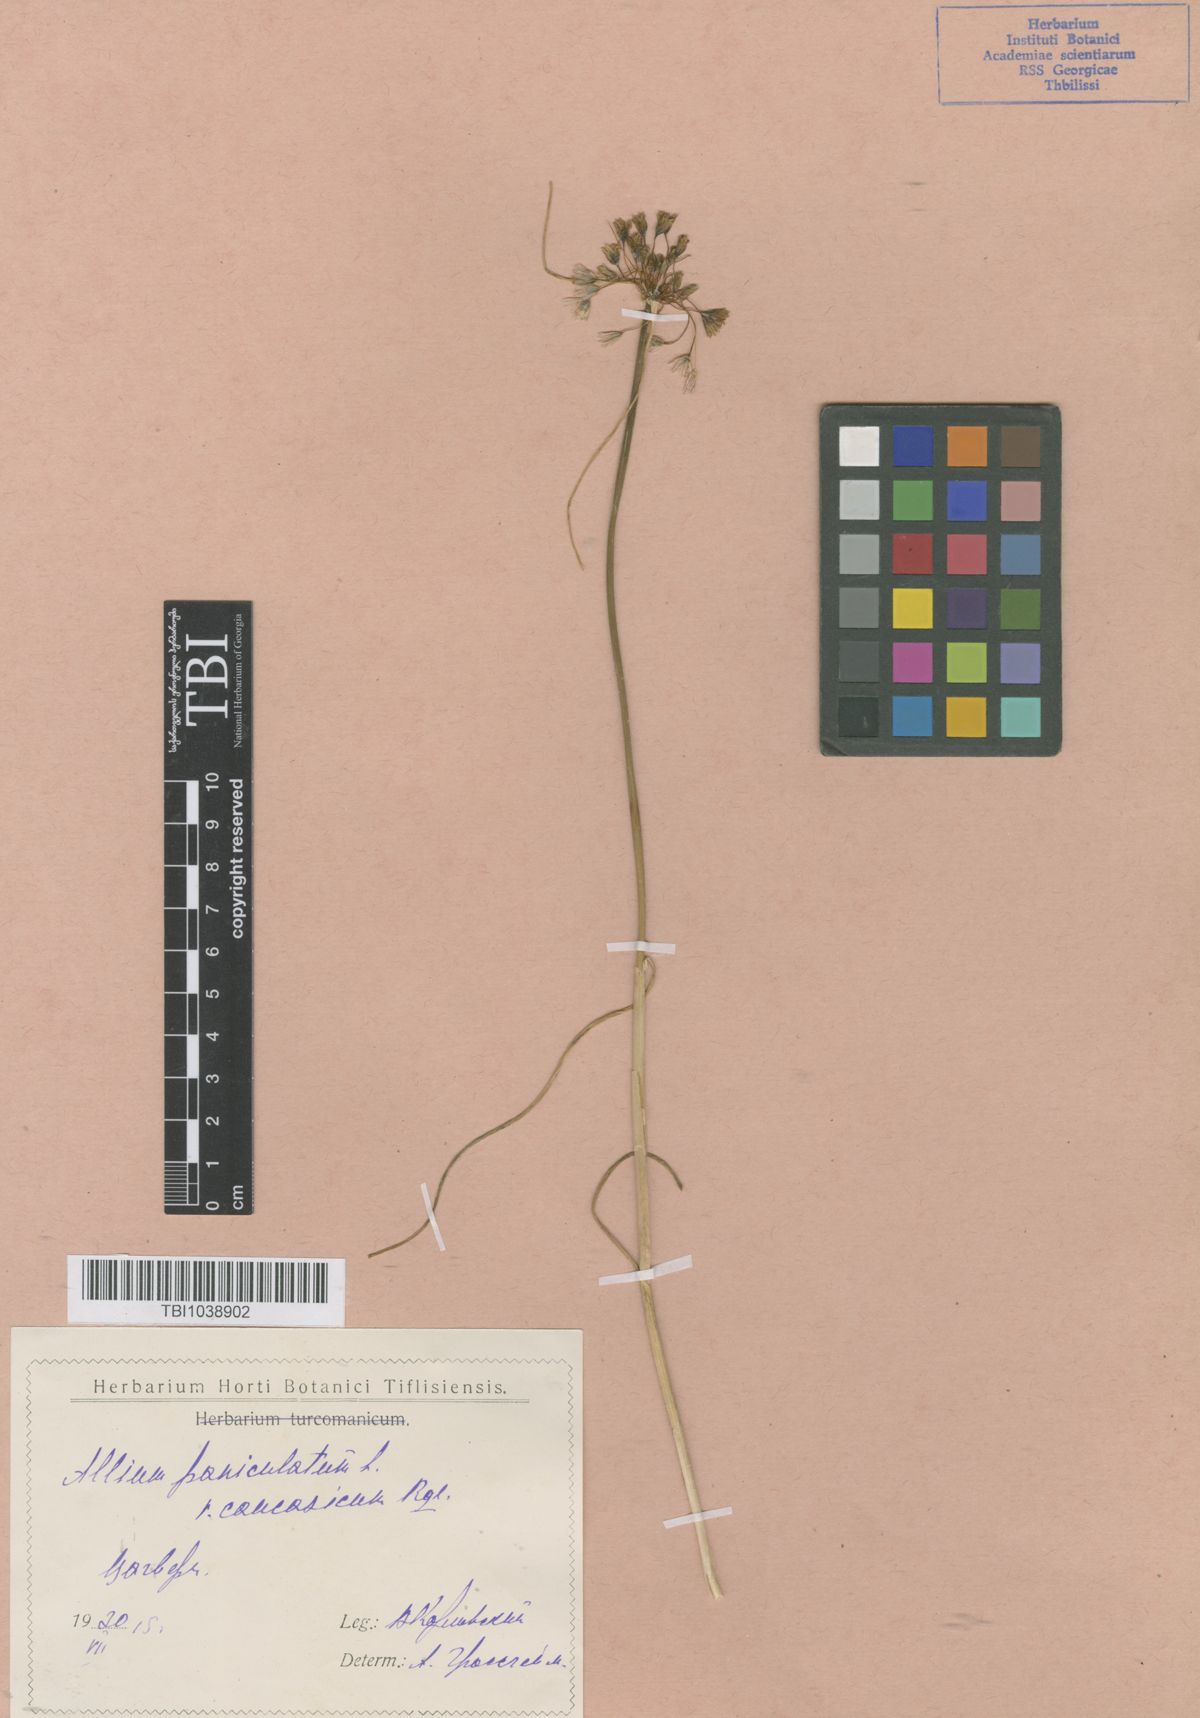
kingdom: Plantae
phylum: Tracheophyta
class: Liliopsida
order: Asparagales
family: Amaryllidaceae
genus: Allium
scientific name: Allium paniculatum
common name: Pale garlic
